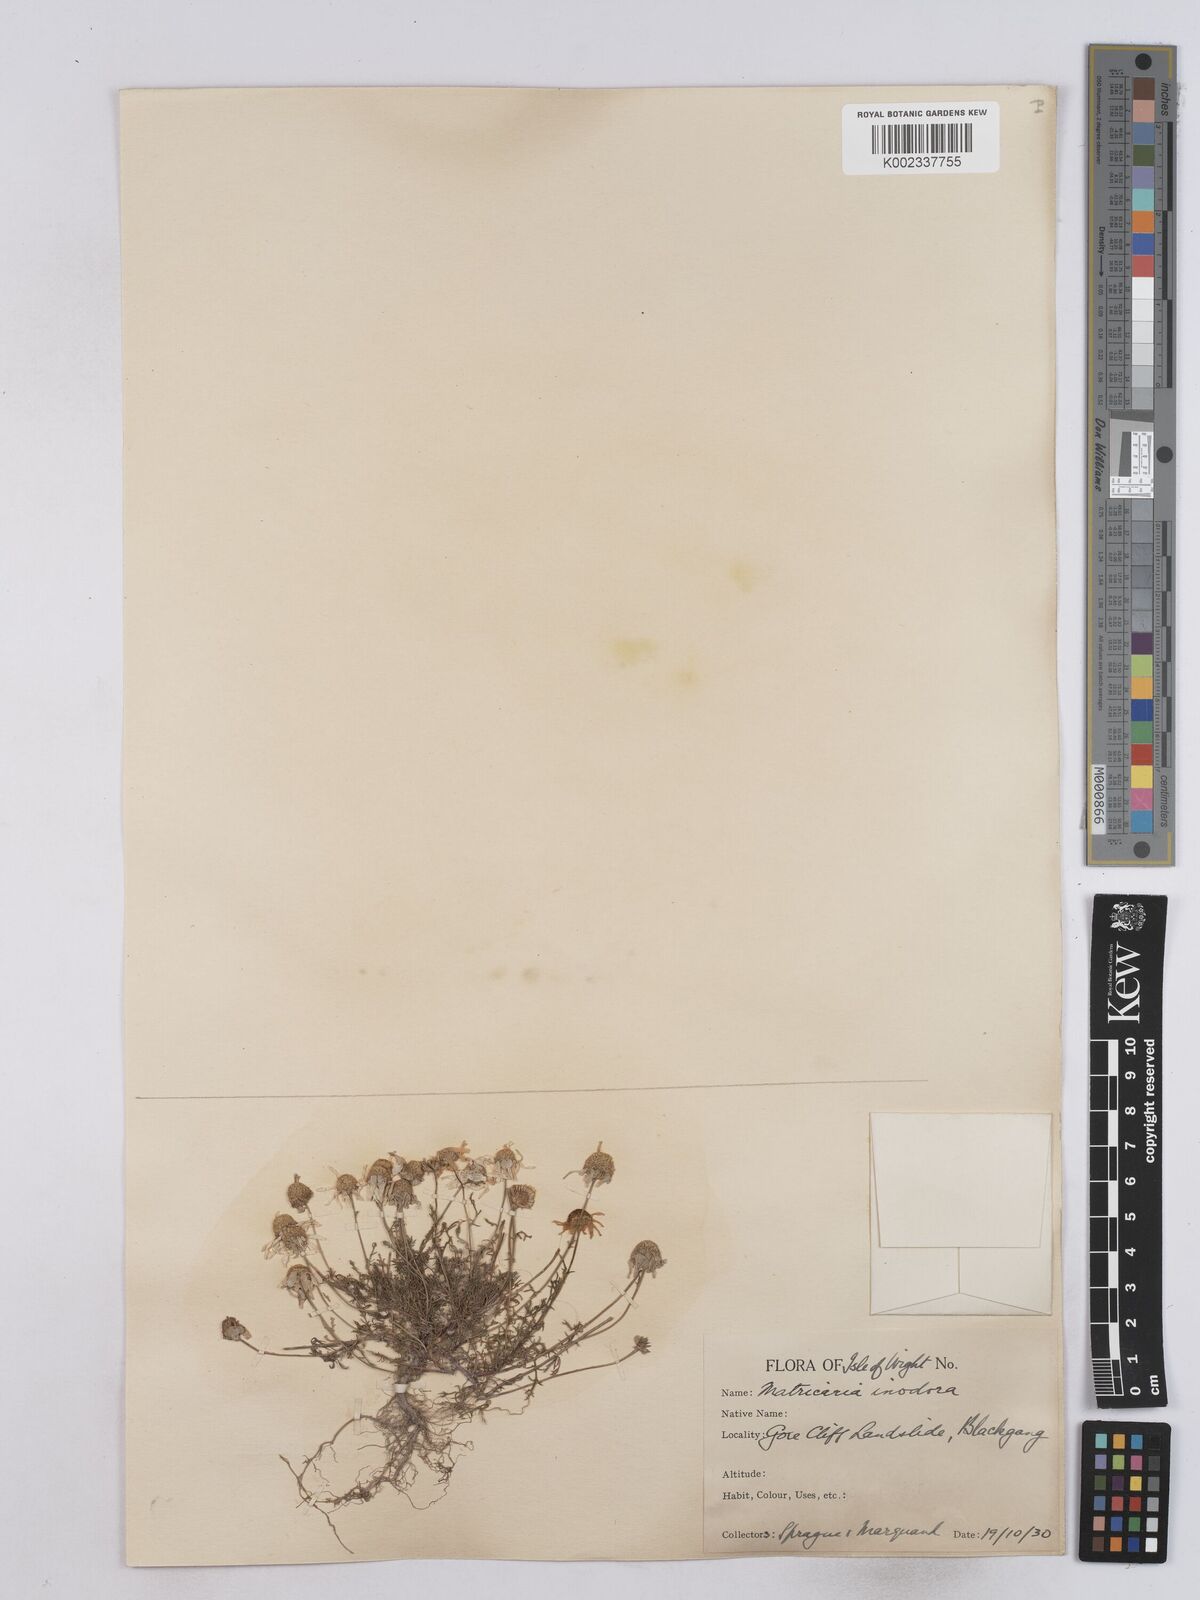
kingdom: Plantae
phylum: Tracheophyta
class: Magnoliopsida
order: Asterales
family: Asteraceae
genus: Matricaria
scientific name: Matricaria
